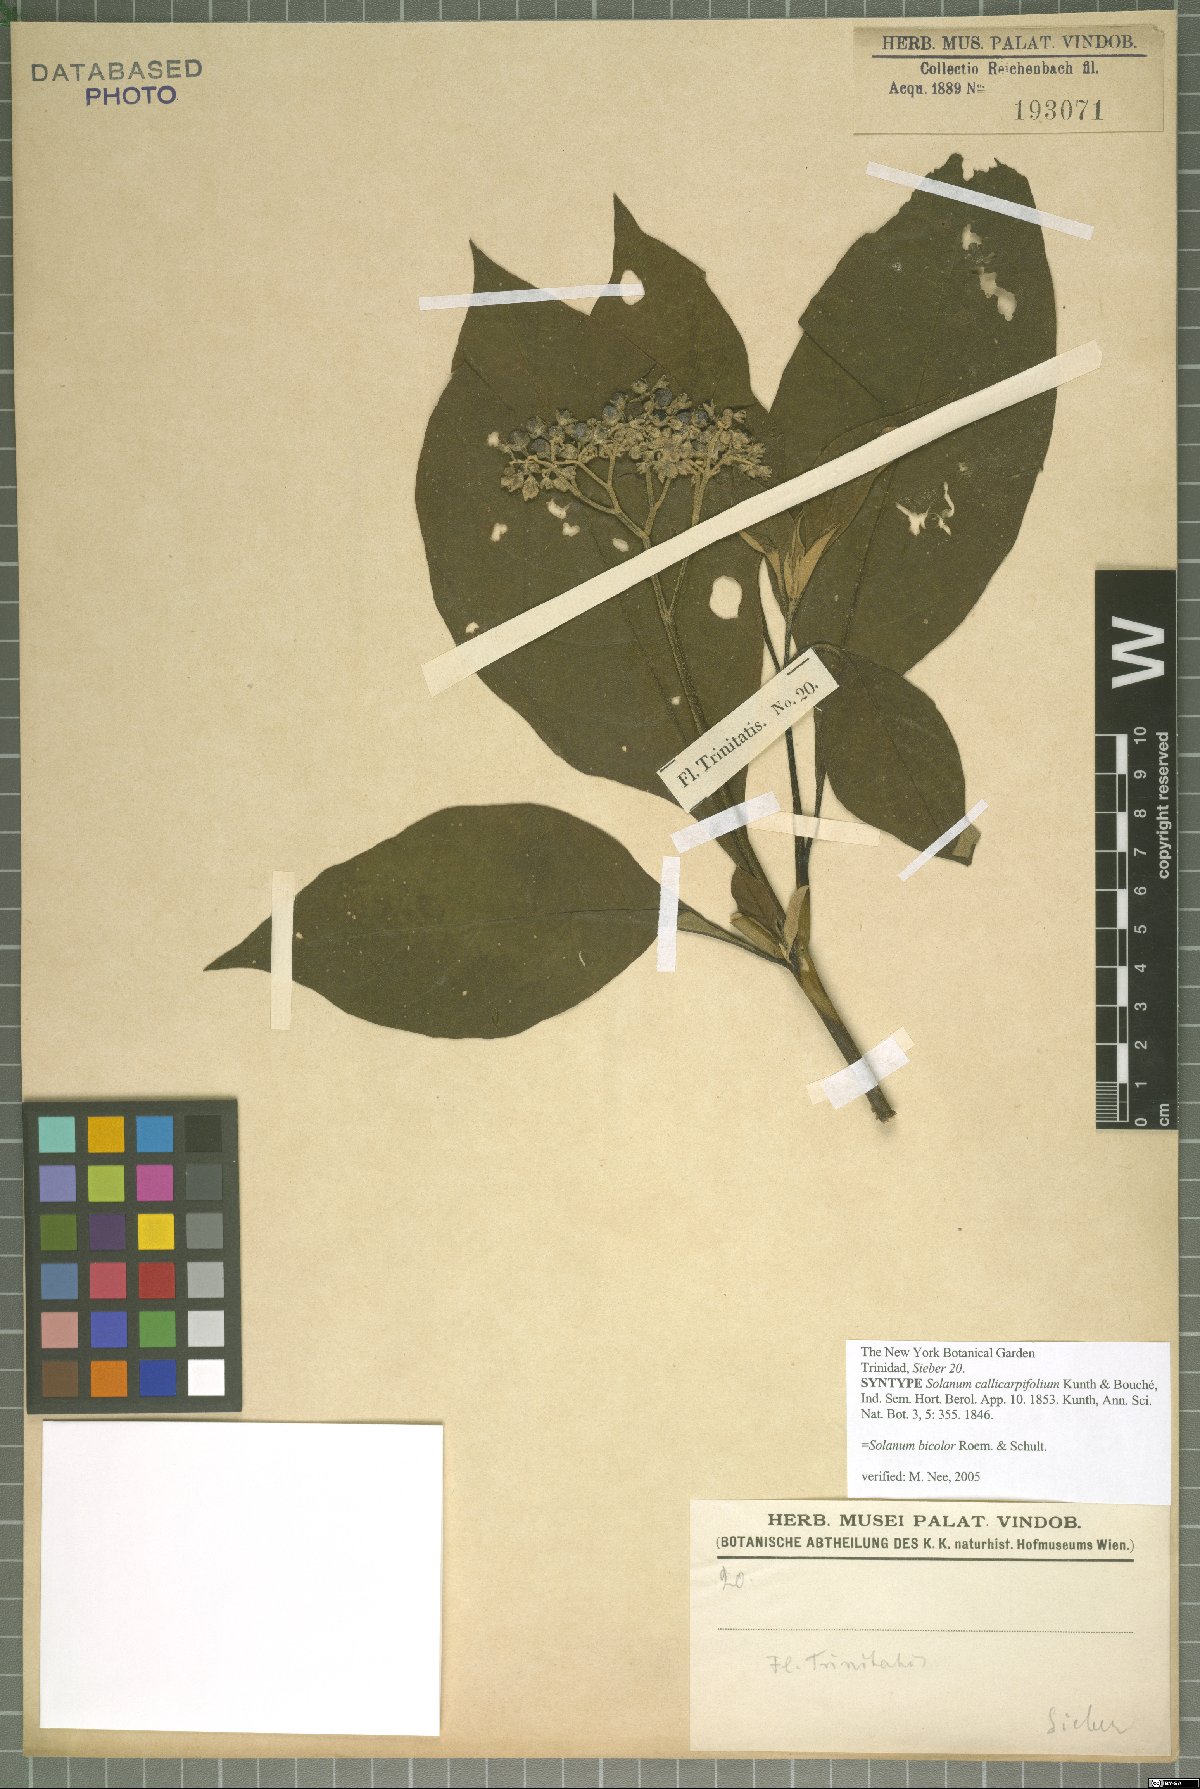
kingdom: Plantae
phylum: Tracheophyta
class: Magnoliopsida
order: Solanales
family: Solanaceae
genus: Solanum
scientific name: Solanum bicolor
